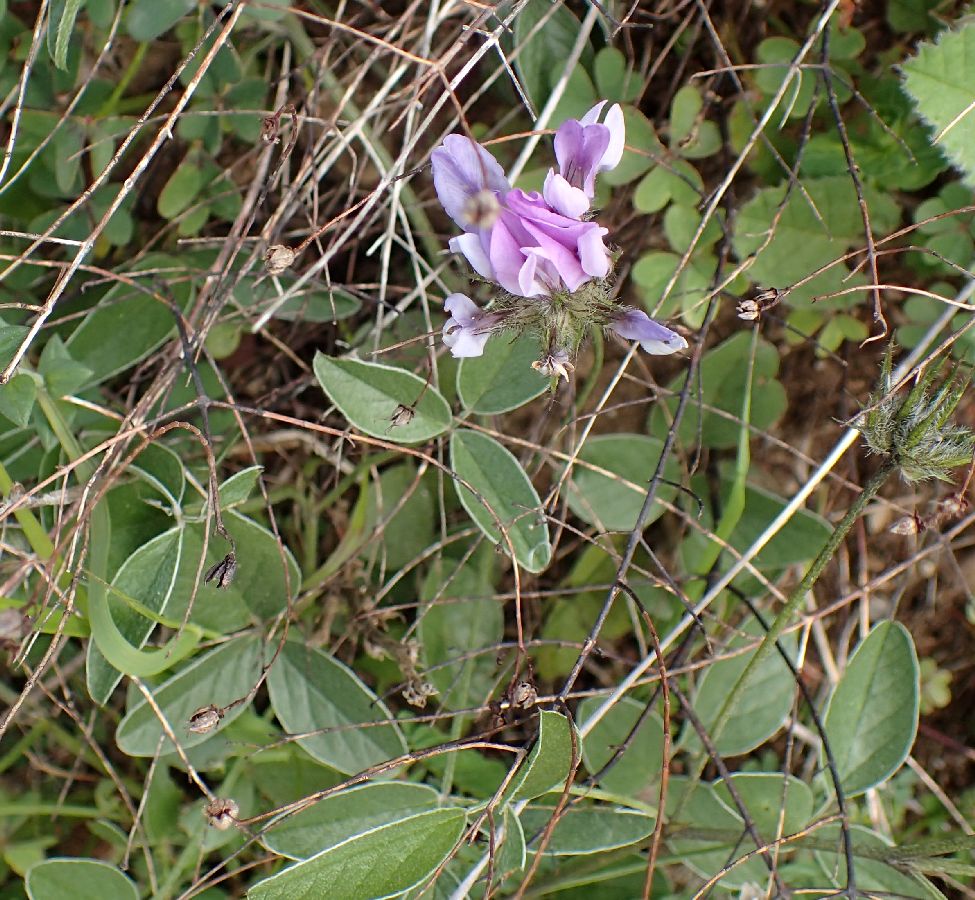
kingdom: Plantae
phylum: Tracheophyta
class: Magnoliopsida
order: Fabales
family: Fabaceae
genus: Bituminaria
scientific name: Bituminaria bituminosa
